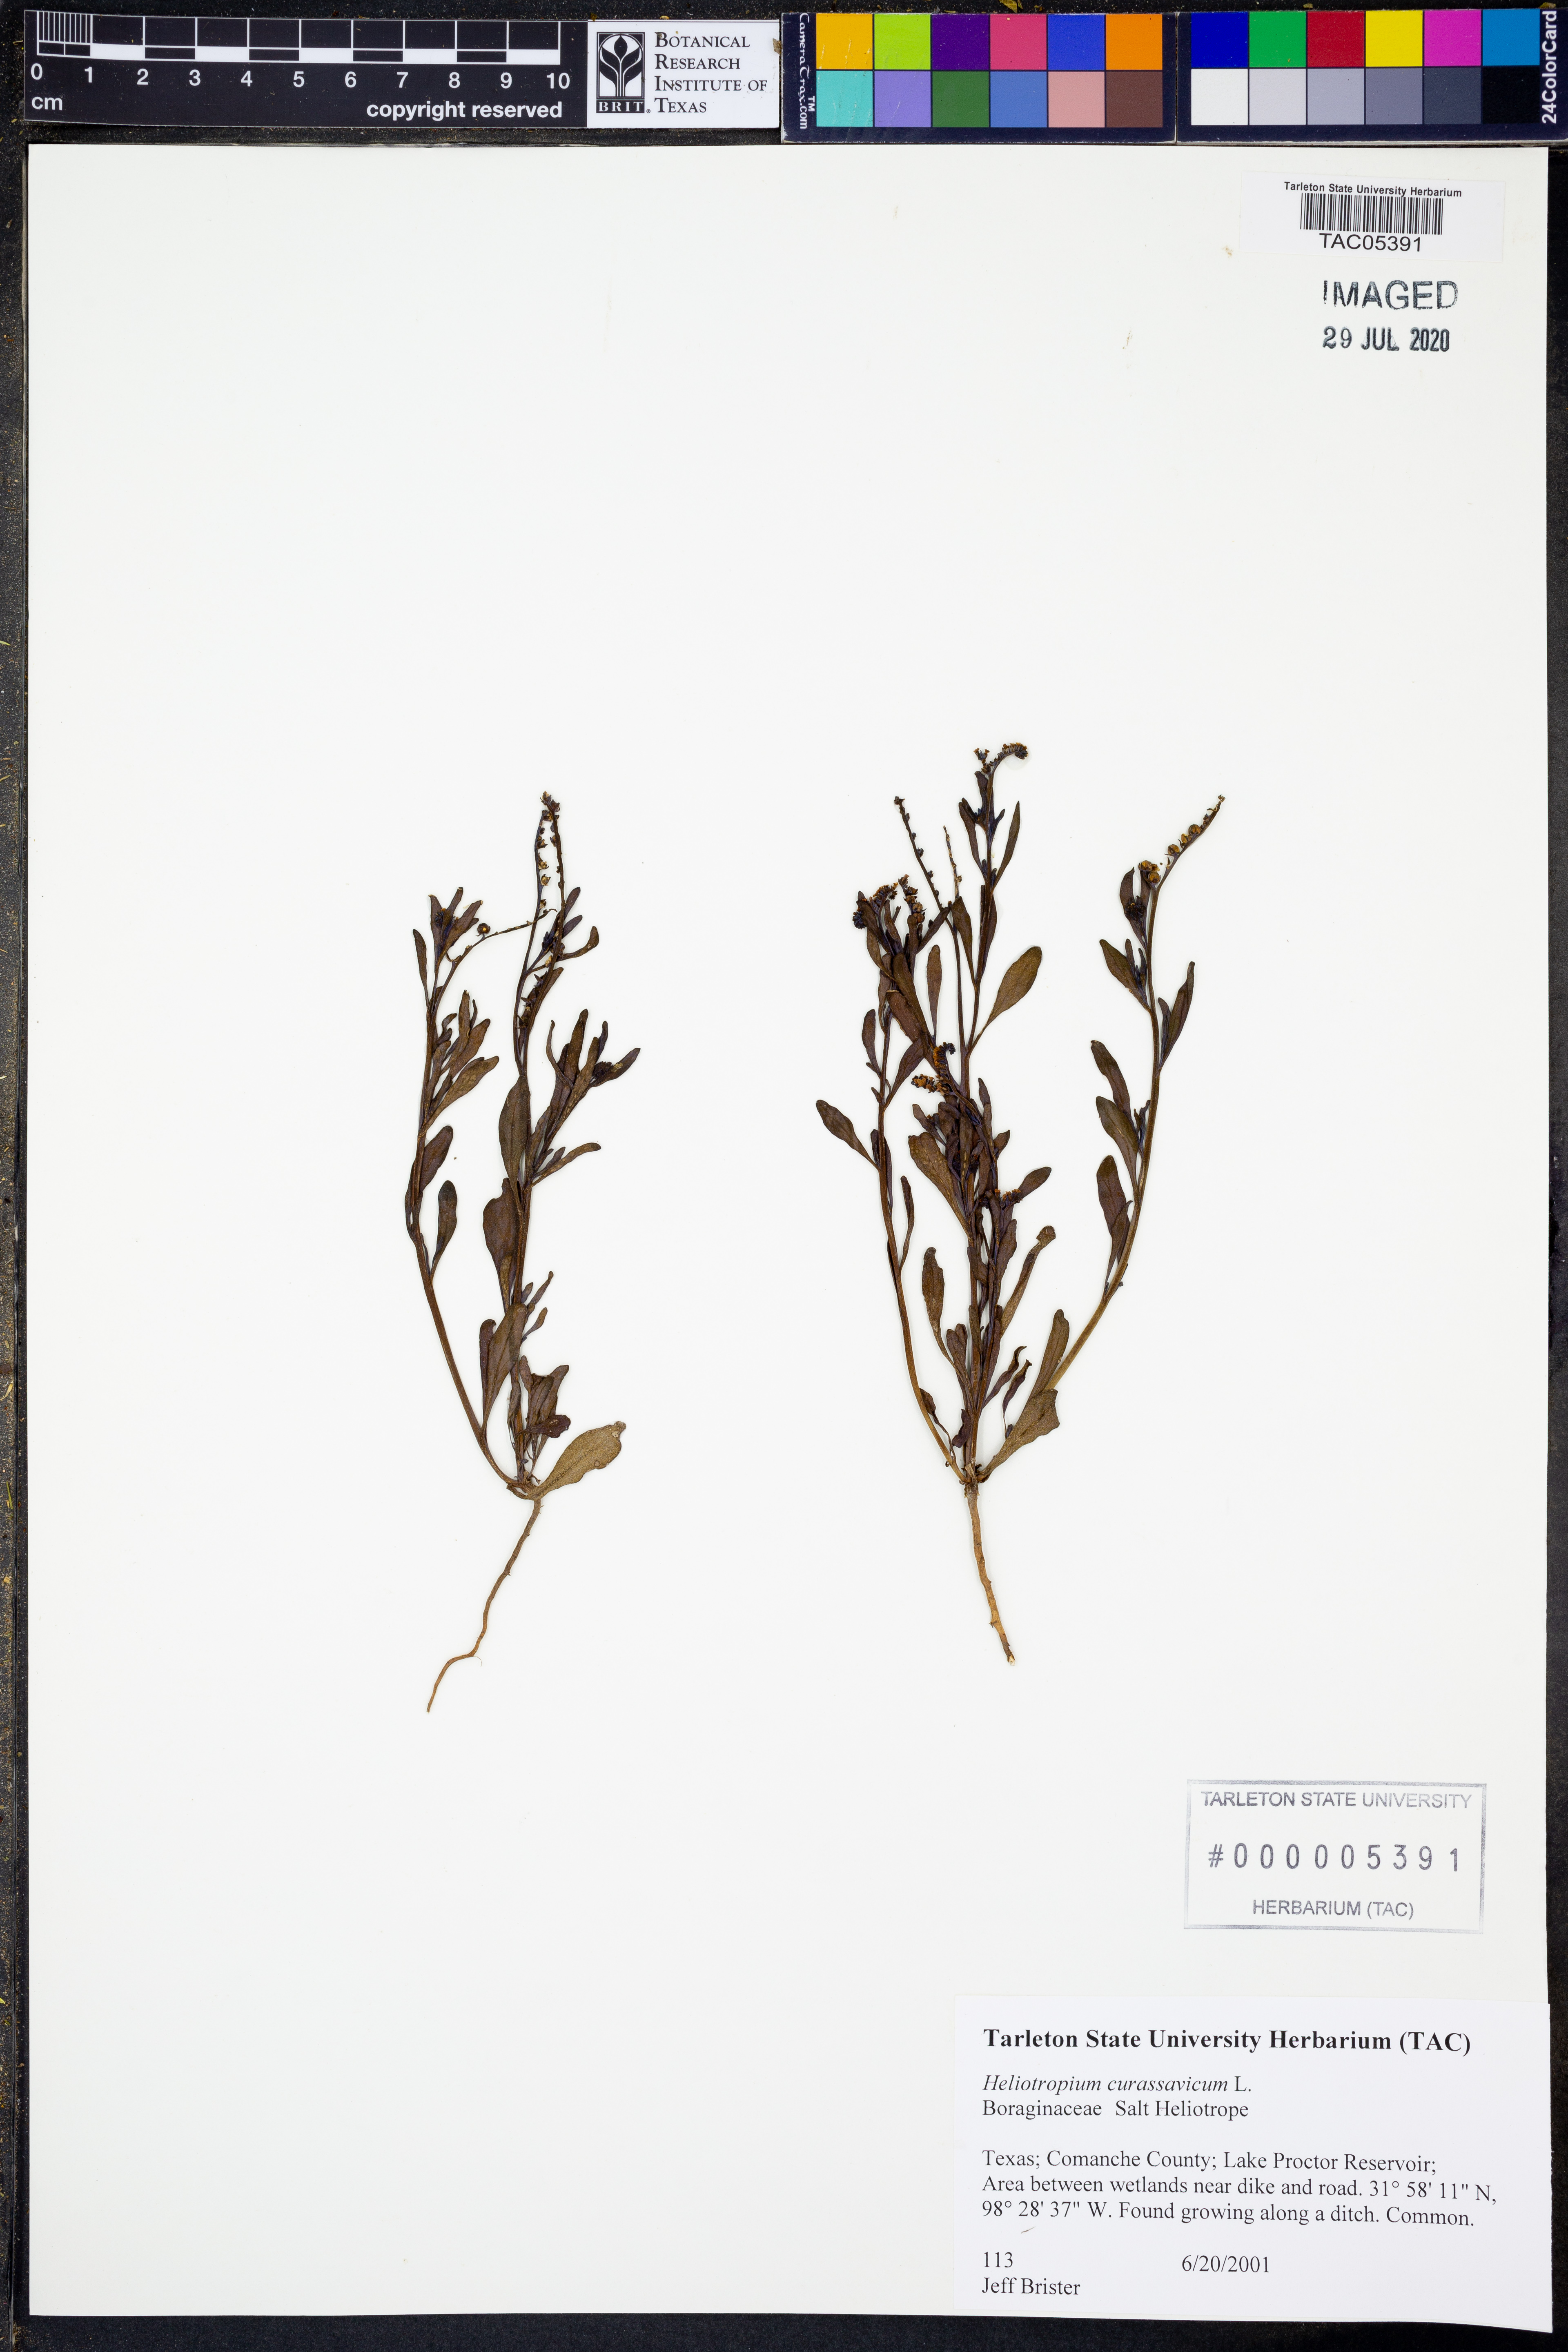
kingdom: Plantae
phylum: Tracheophyta
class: Magnoliopsida
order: Boraginales
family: Heliotropiaceae
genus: Heliotropium
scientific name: Heliotropium curassavicum
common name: Seaside heliotrope
